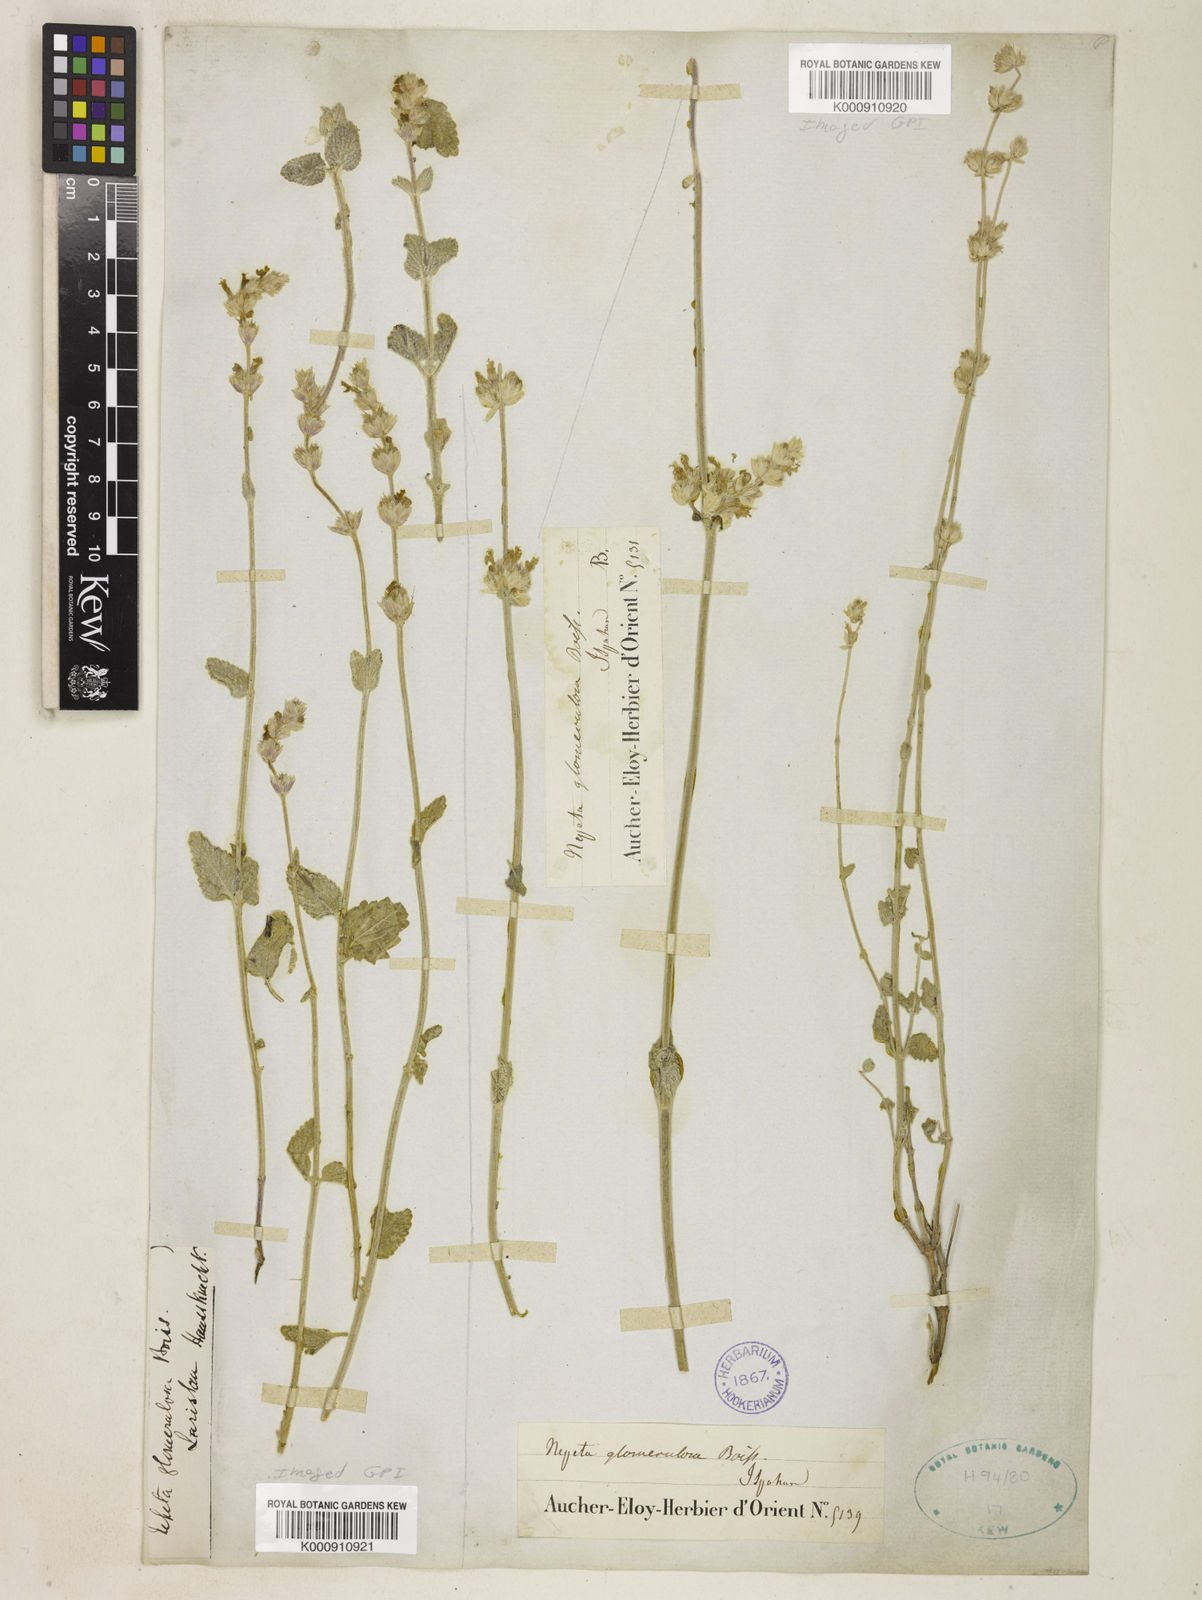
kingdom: Plantae
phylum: Tracheophyta
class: Magnoliopsida
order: Lamiales
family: Lamiaceae
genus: Nepeta
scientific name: Nepeta glomerulosa
